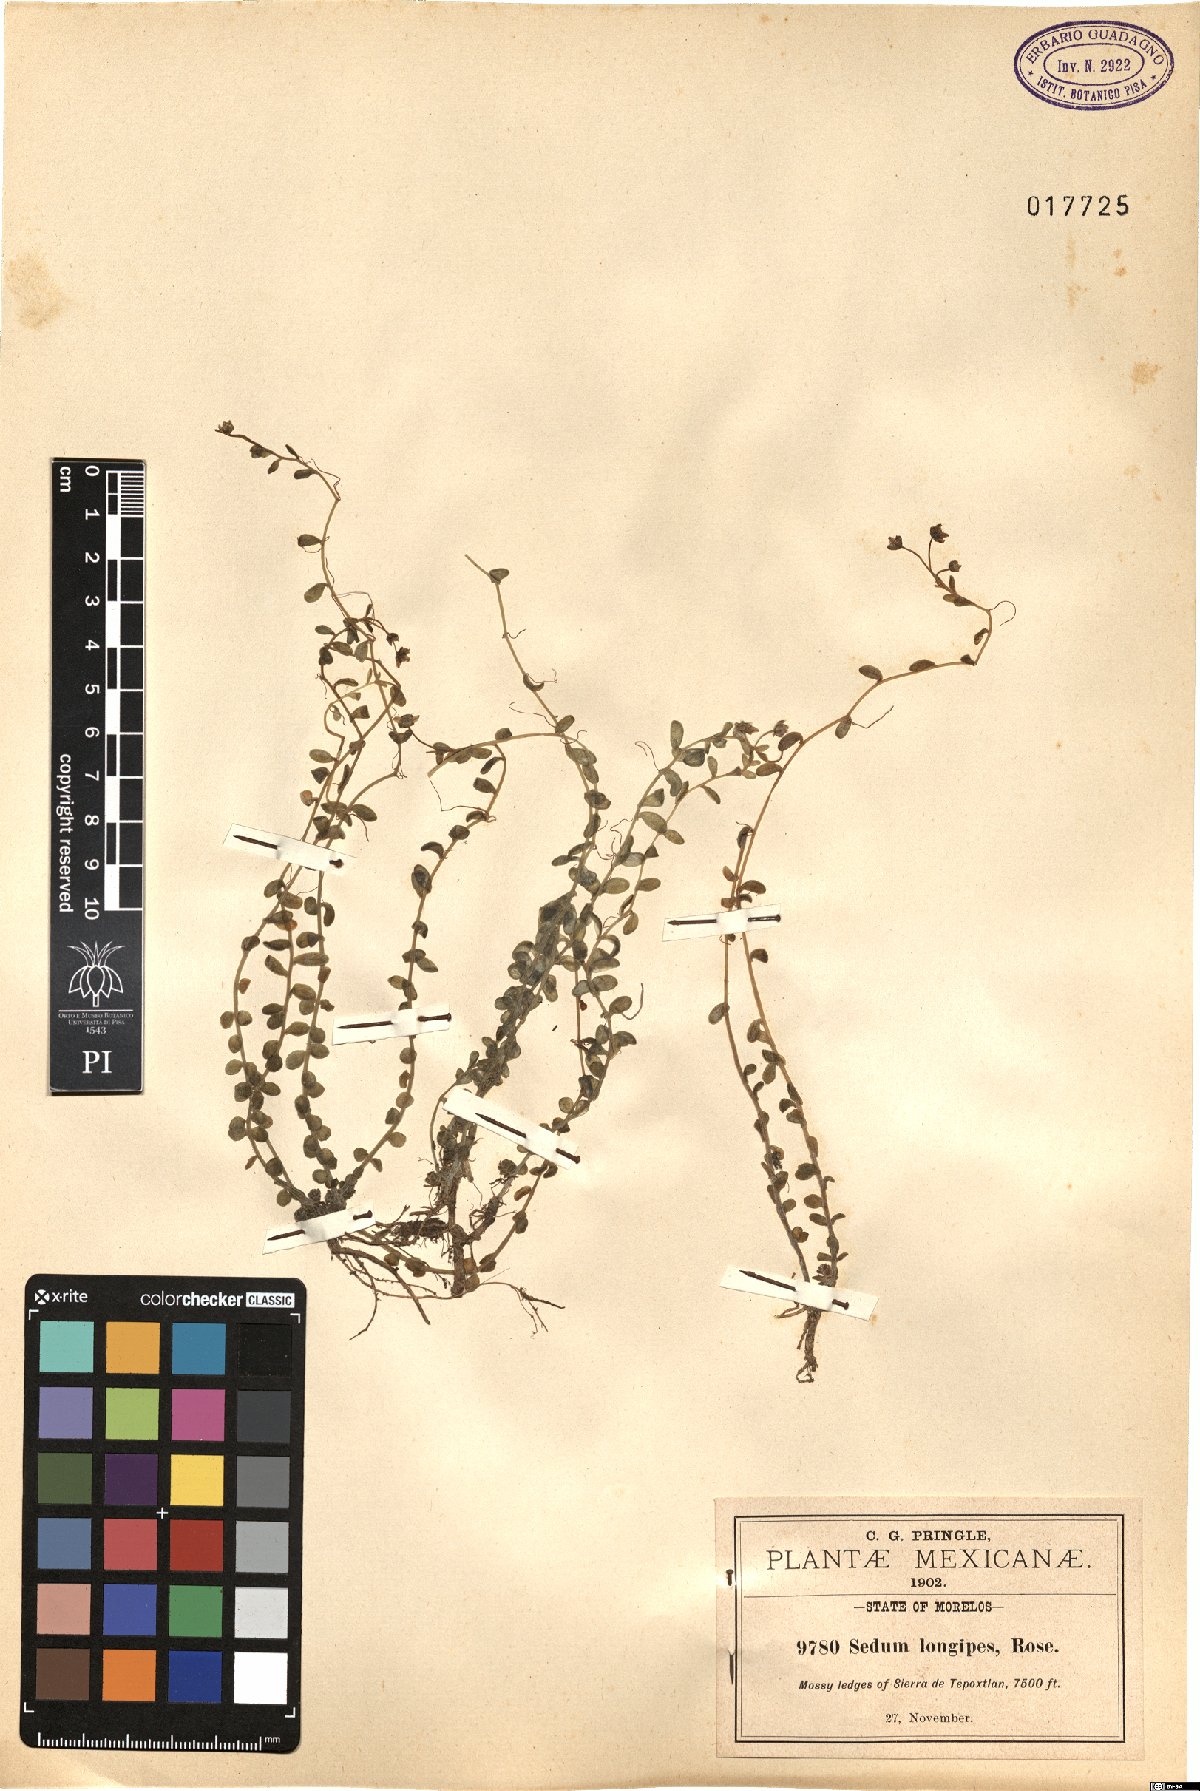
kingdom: Plantae
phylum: Tracheophyta
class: Magnoliopsida
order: Saxifragales
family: Crassulaceae
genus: Sedum
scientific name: Sedum longipes
